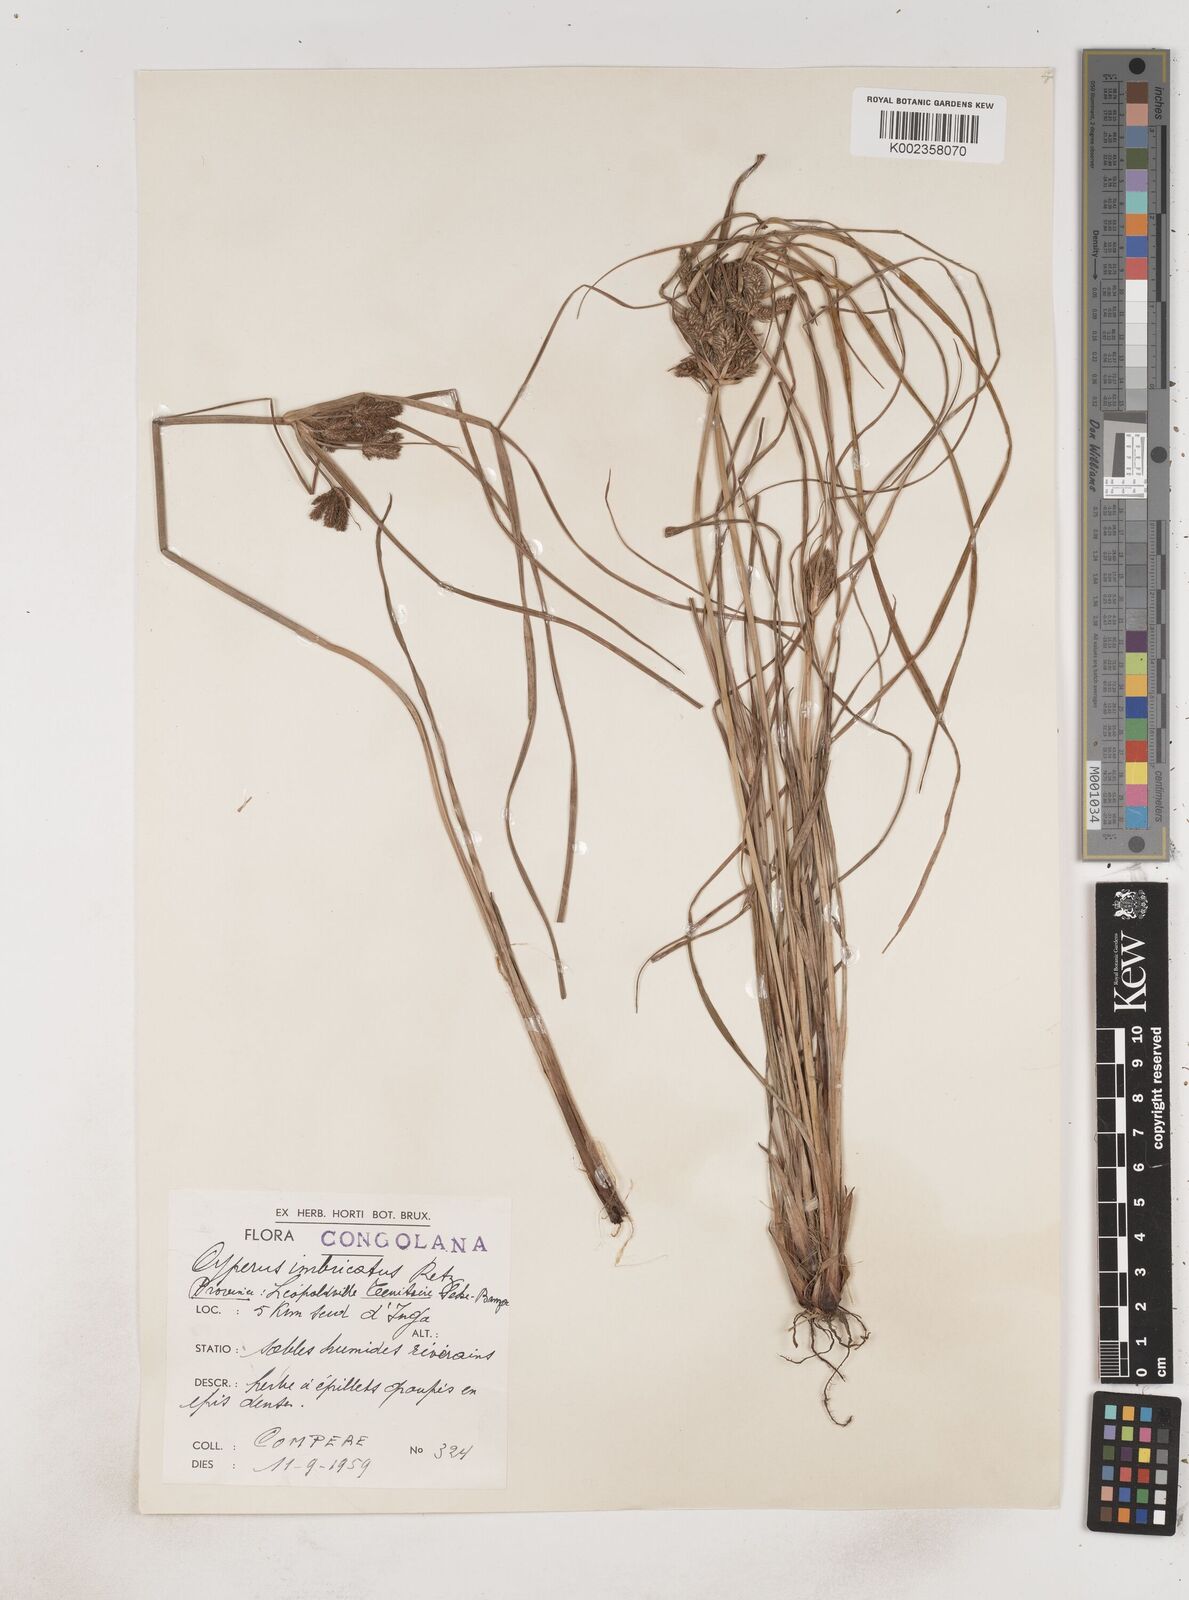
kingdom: Plantae
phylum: Tracheophyta
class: Liliopsida
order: Poales
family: Cyperaceae
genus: Cyperus
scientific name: Cyperus imbricatus
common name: Shingle flatsedge
